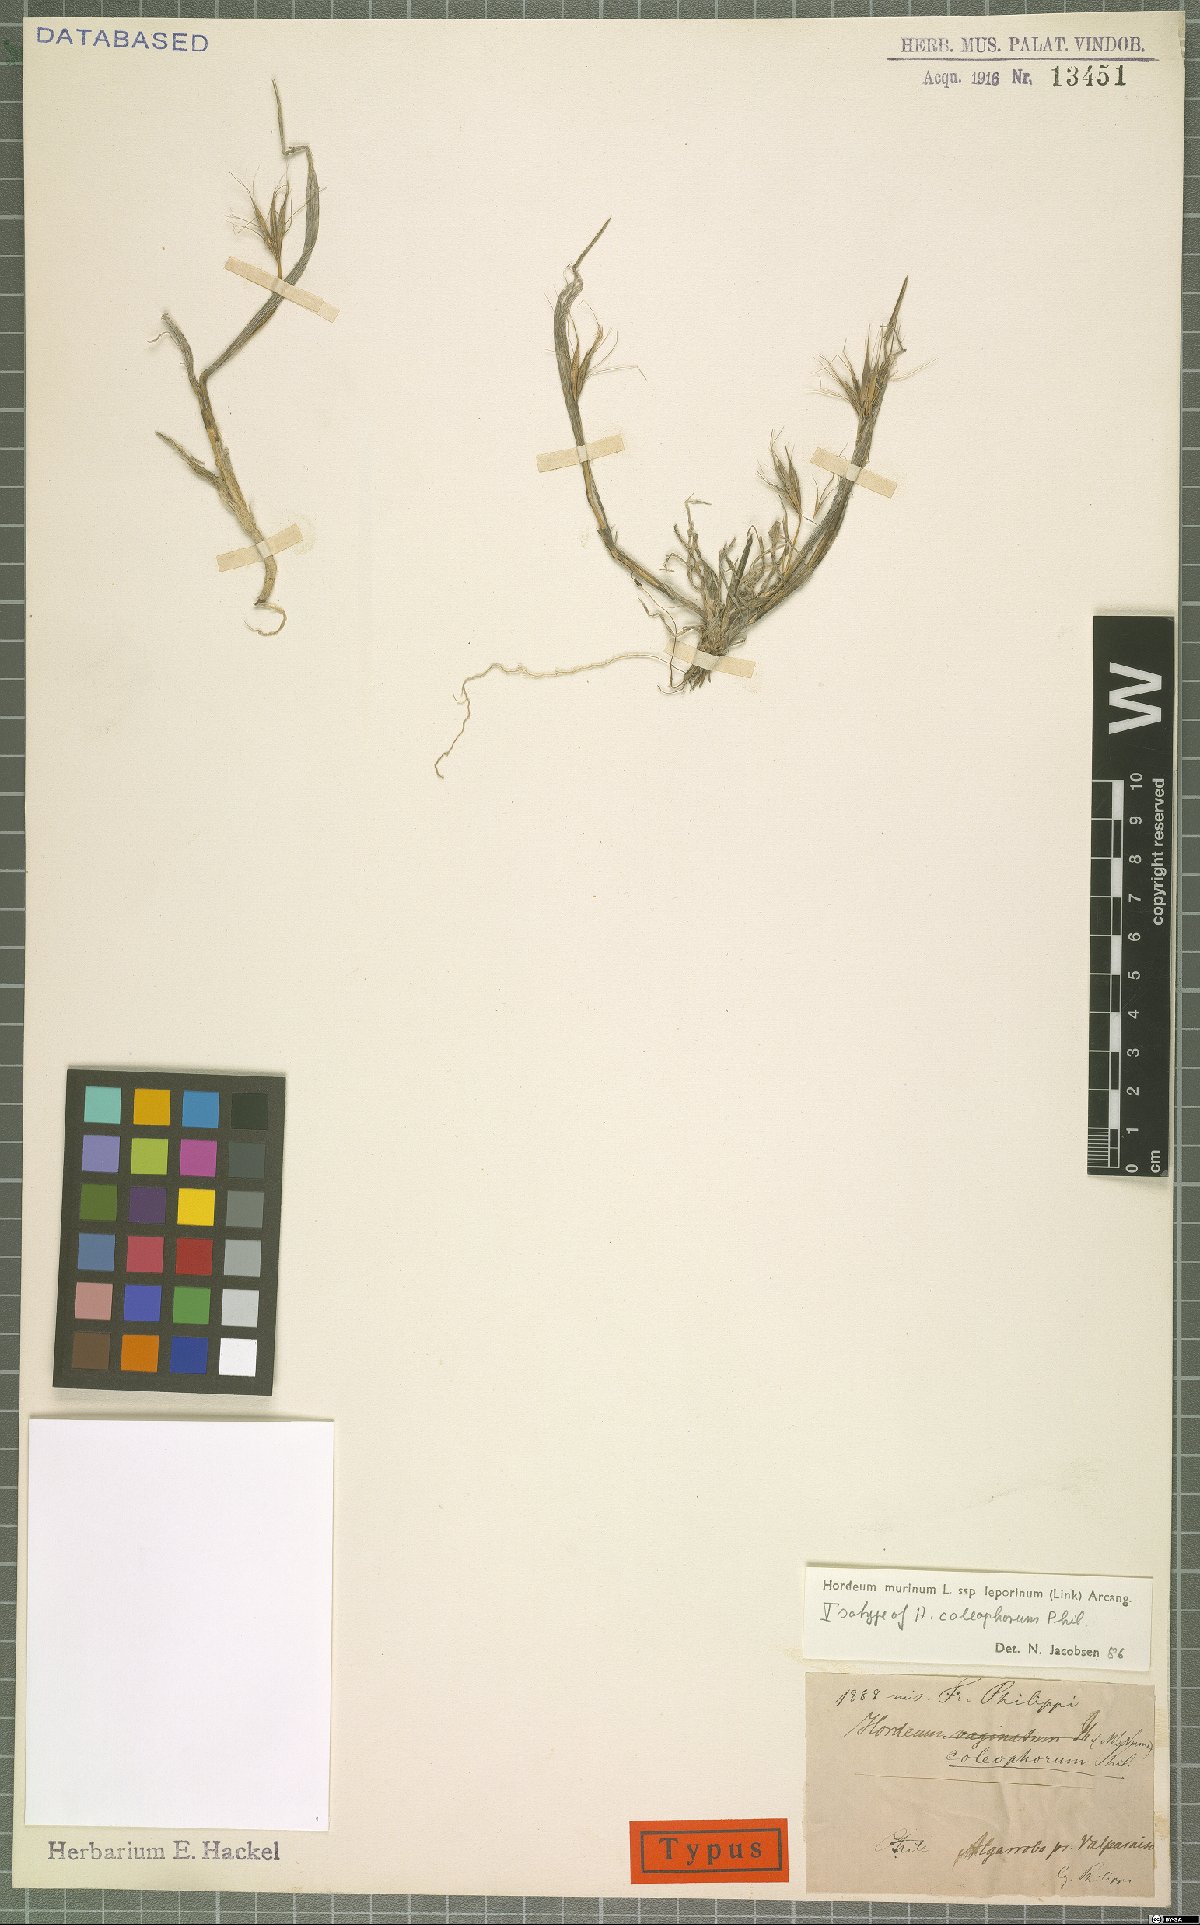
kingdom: Plantae
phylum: Tracheophyta
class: Liliopsida
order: Poales
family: Poaceae
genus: Hordeum
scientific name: Hordeum murinum
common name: Wall barley
